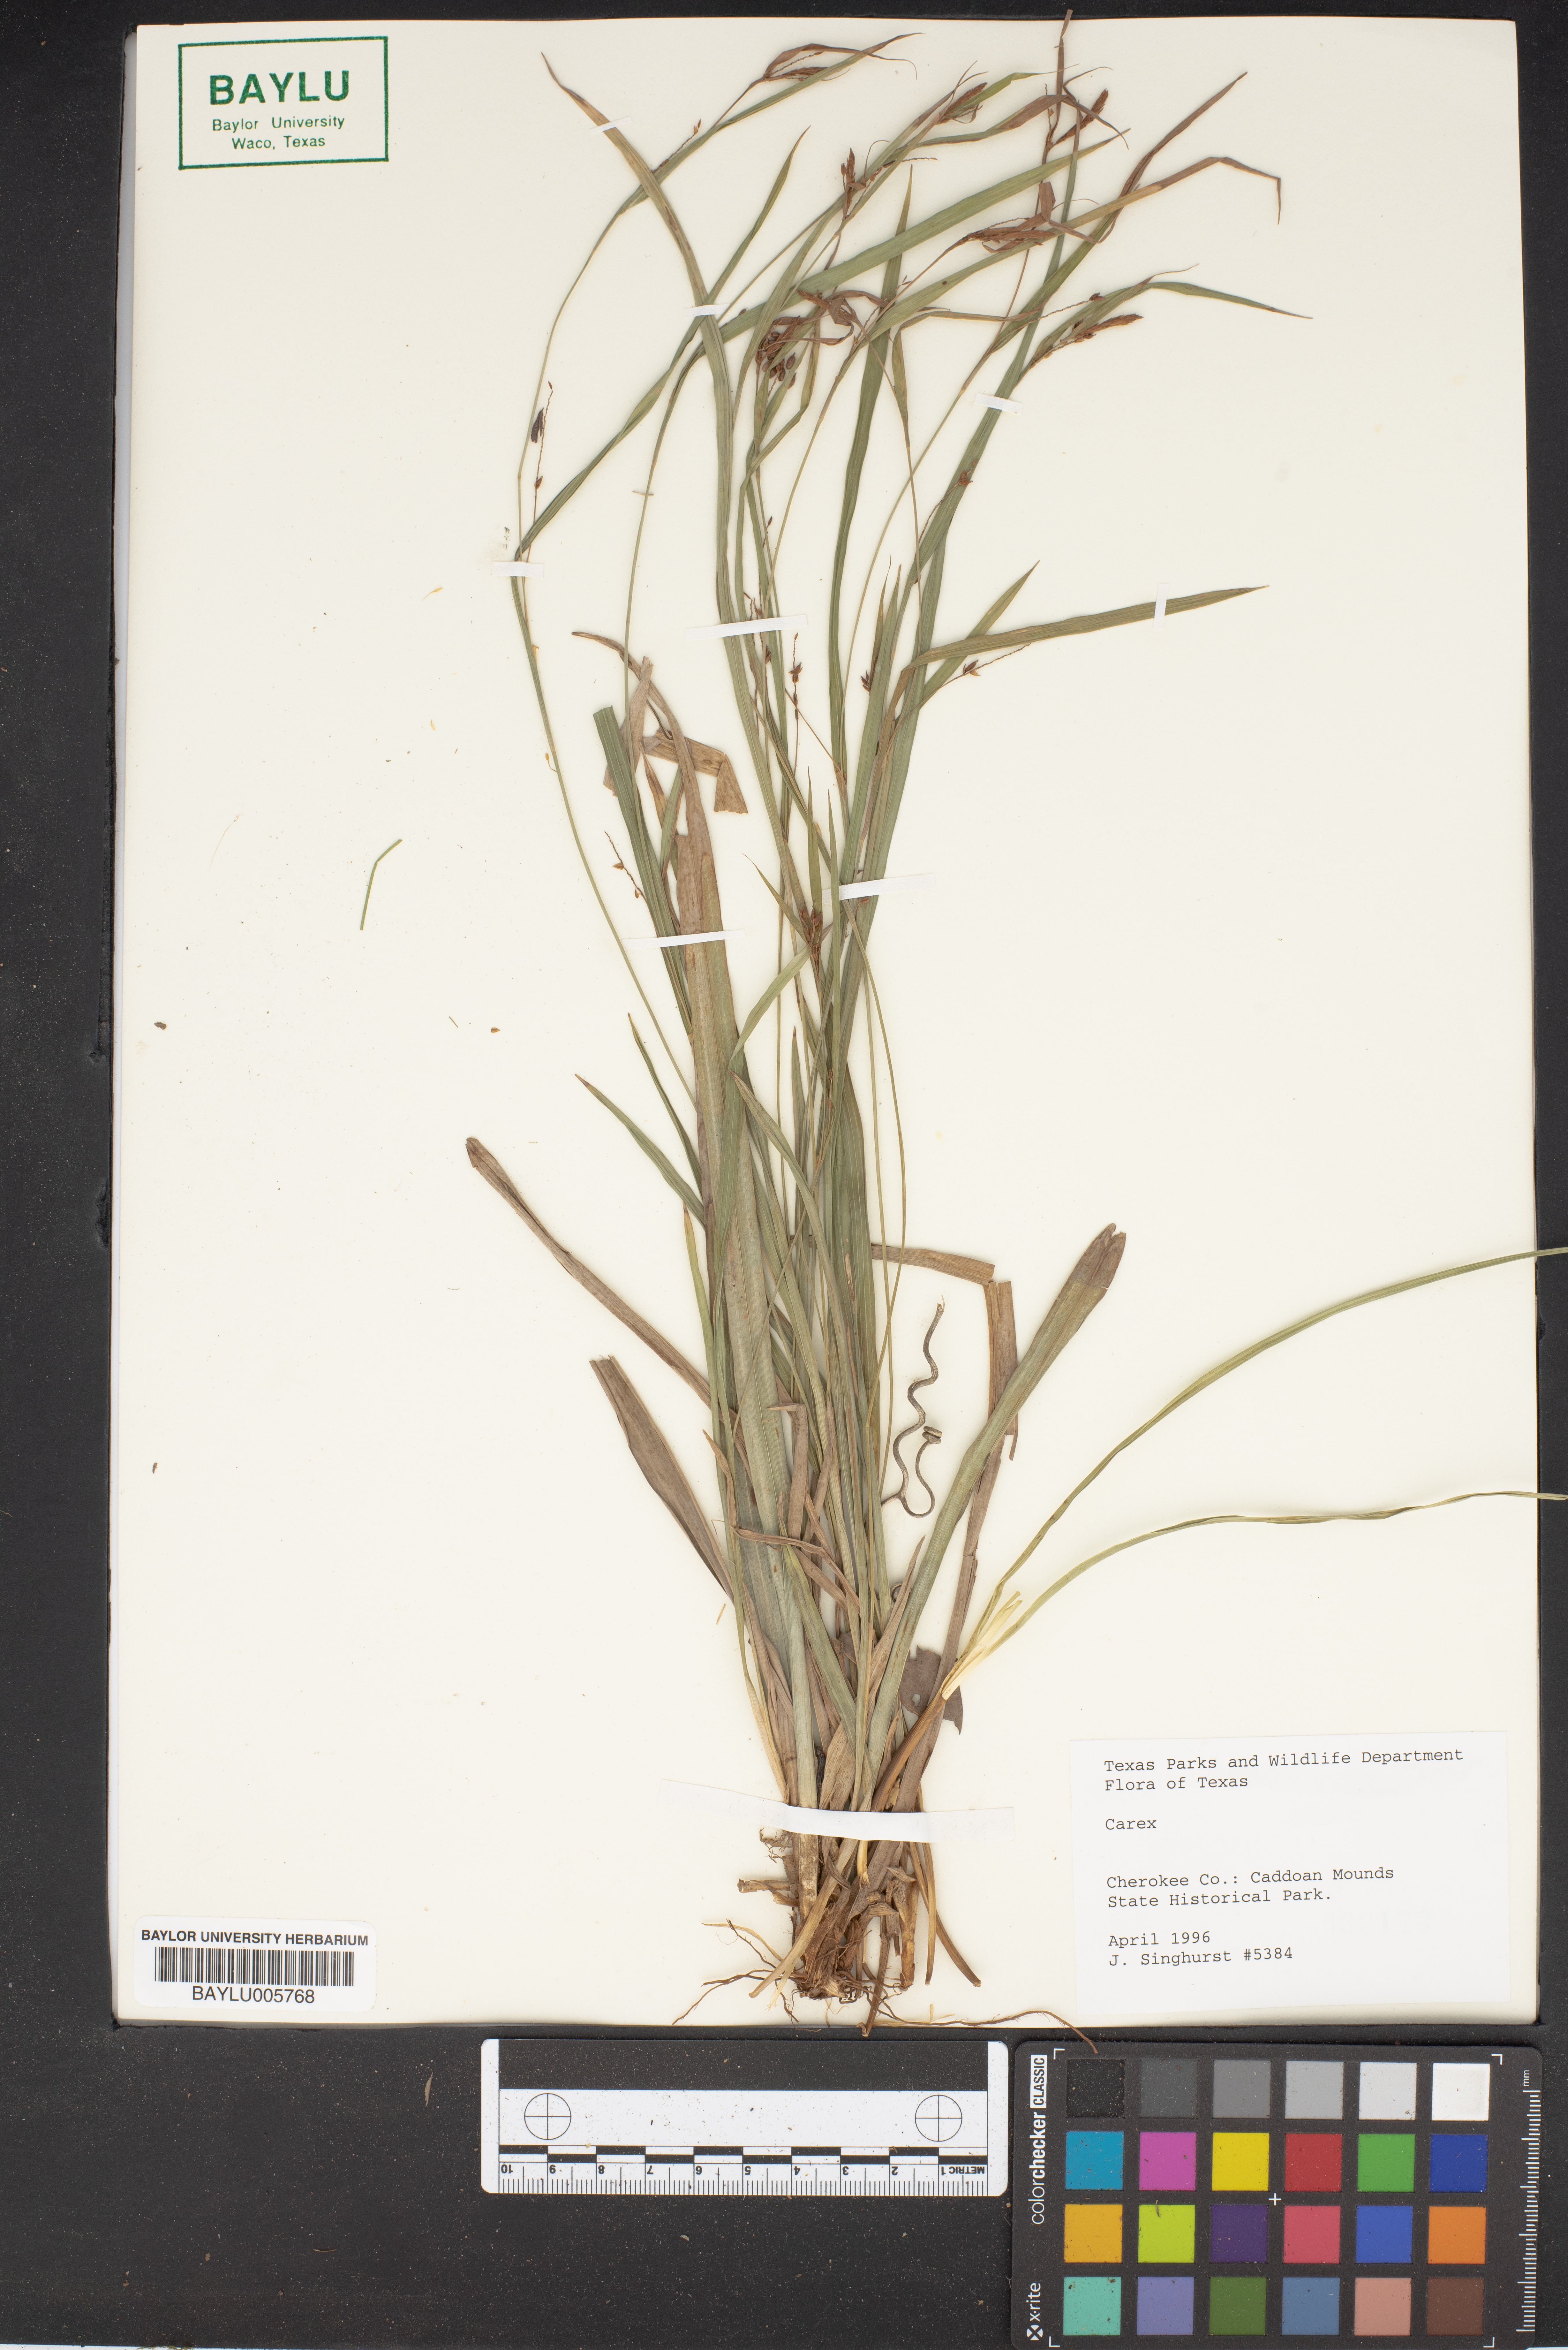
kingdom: Plantae
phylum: Tracheophyta
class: Liliopsida
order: Poales
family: Cyperaceae
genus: Carex
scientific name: Carex
